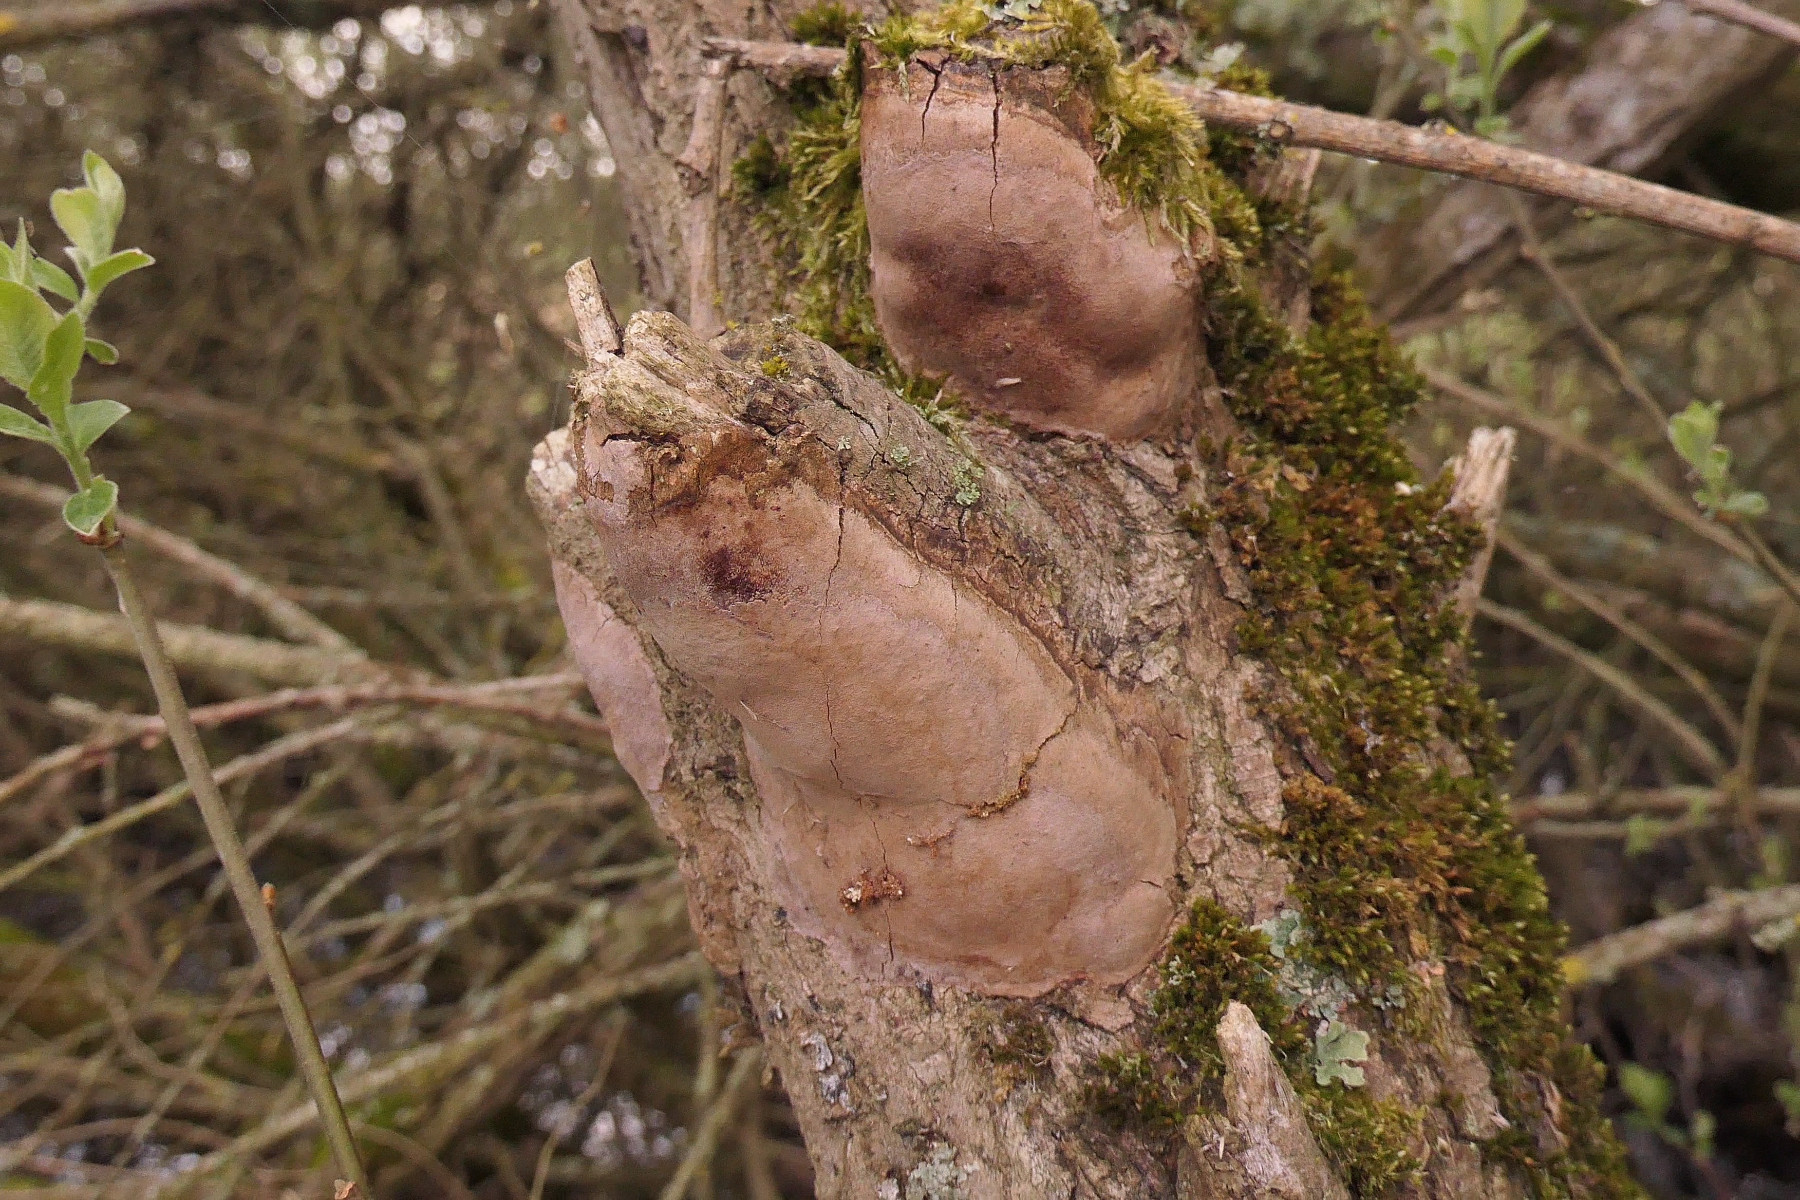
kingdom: Fungi
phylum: Basidiomycota
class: Agaricomycetes
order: Hymenochaetales
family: Hymenochaetaceae
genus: Fomitiporia
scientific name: Fomitiporia punctata
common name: pude-ildporesvamp
